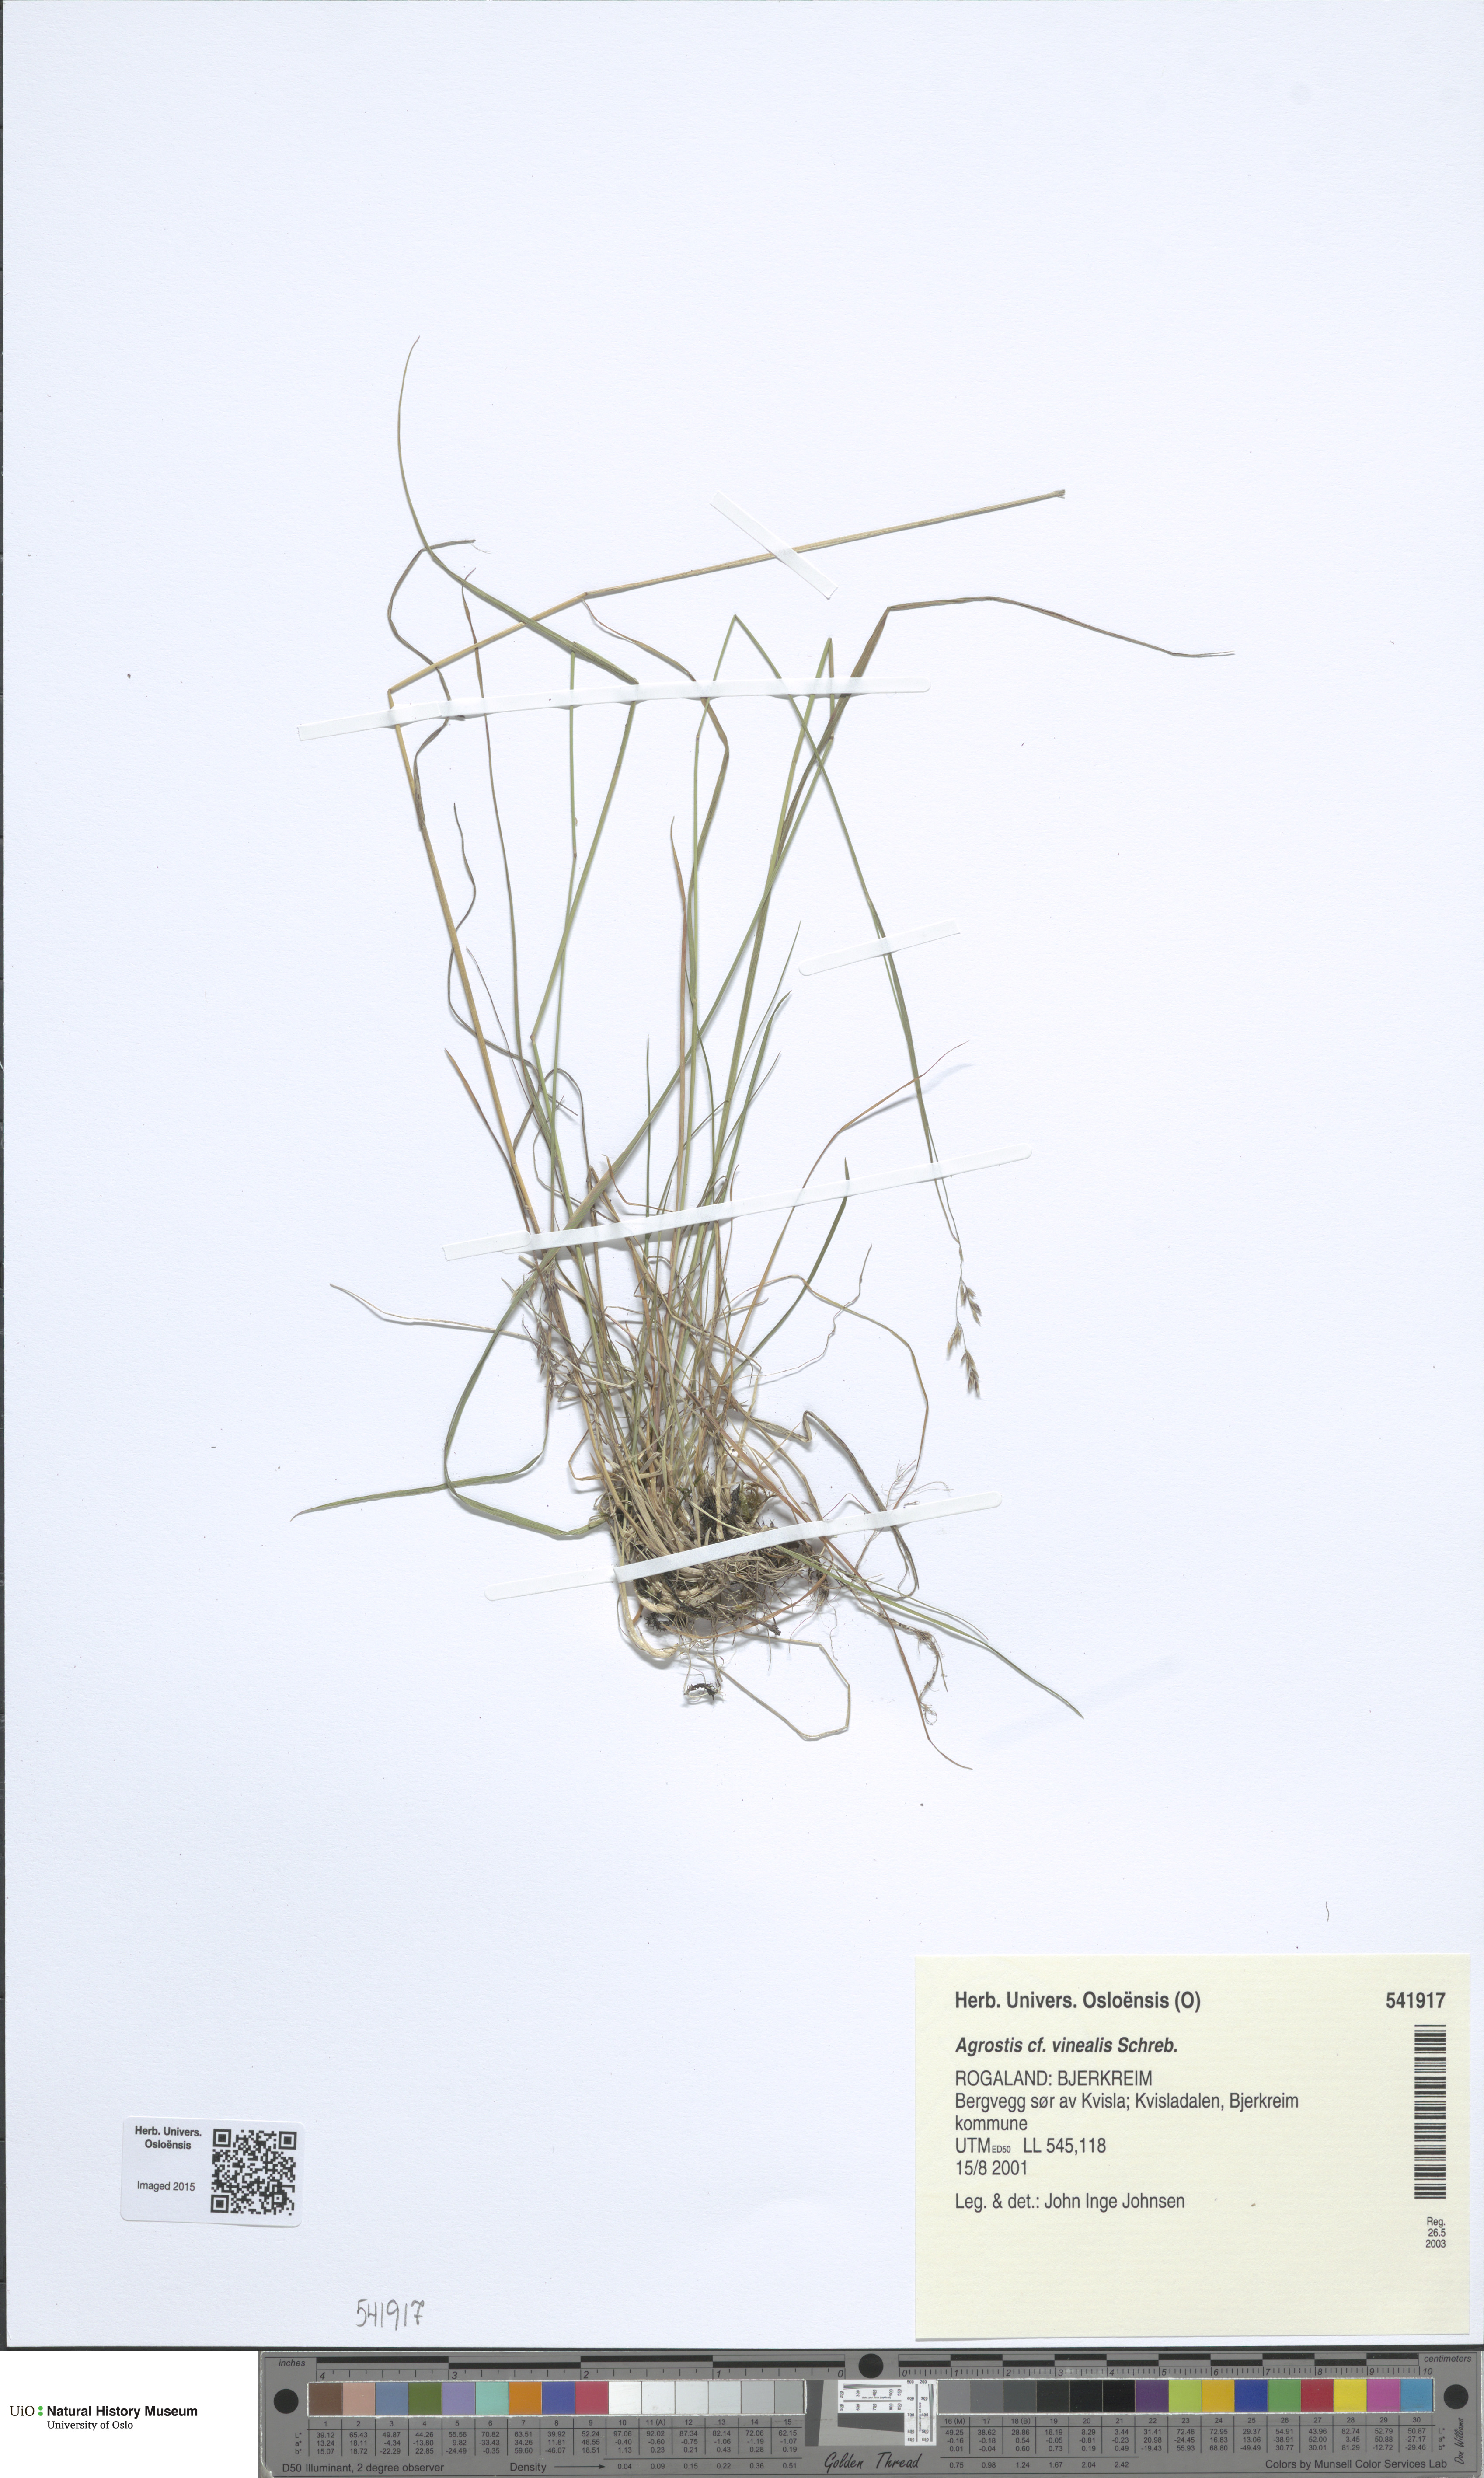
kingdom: Plantae
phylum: Tracheophyta
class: Liliopsida
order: Poales
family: Poaceae
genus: Agrostis
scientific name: Agrostis vinealis
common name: Brown bent
